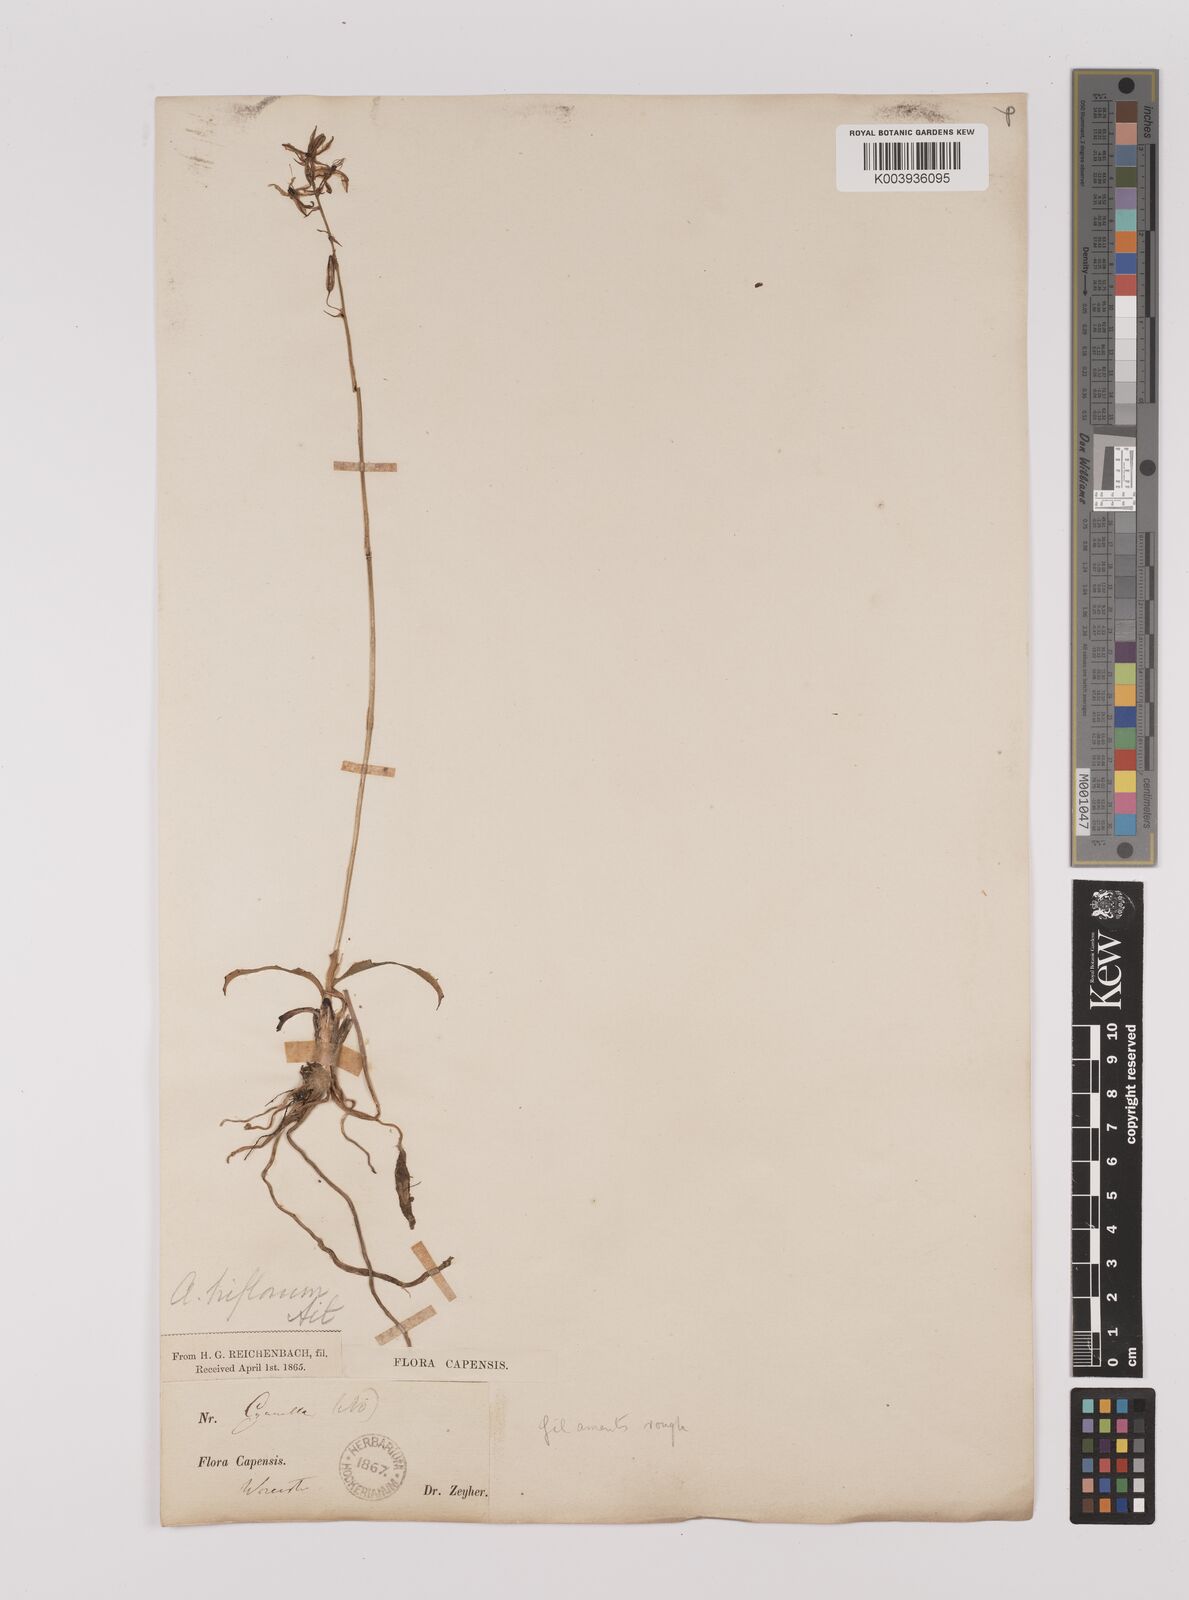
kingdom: Plantae
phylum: Tracheophyta
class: Liliopsida
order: Asparagales
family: Asparagaceae
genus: Chlorophytum
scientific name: Chlorophytum triflorum
